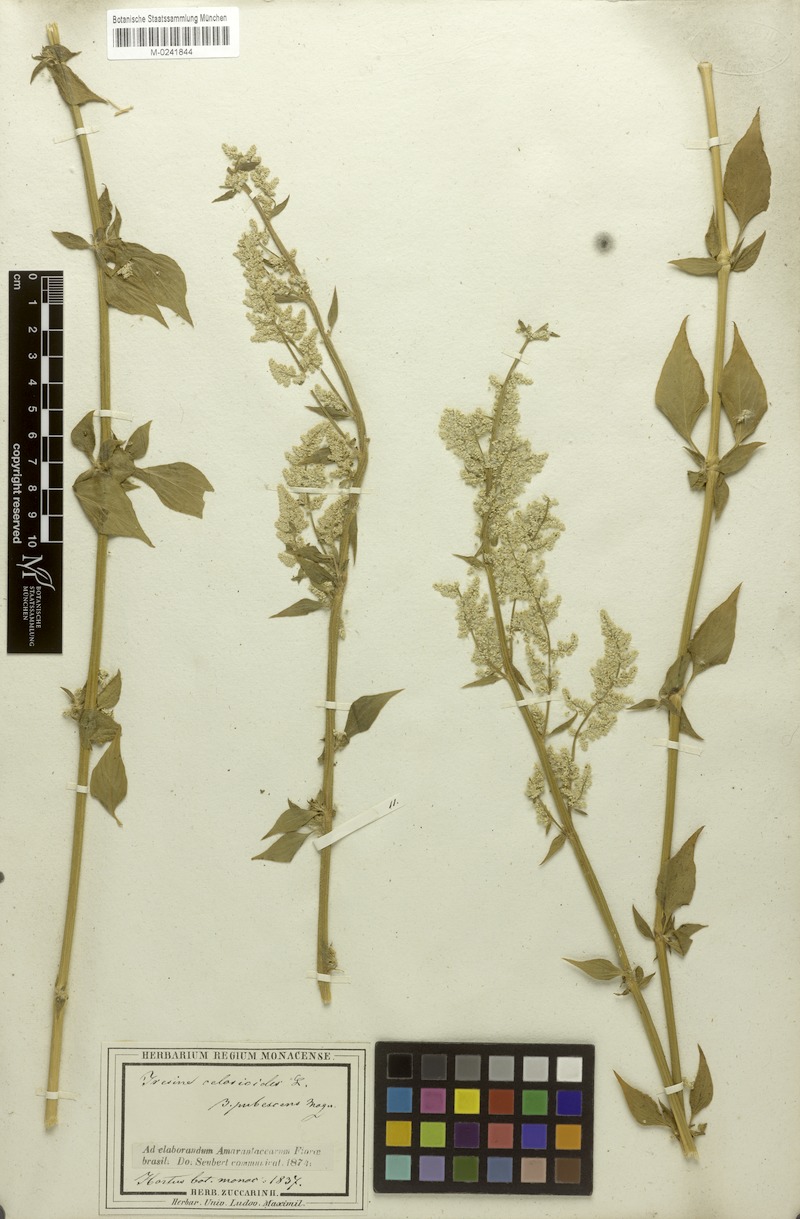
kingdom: Plantae
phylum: Tracheophyta
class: Magnoliopsida
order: Caryophyllales
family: Amaranthaceae
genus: Iresine
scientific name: Iresine diffusa
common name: Juba's-bush
